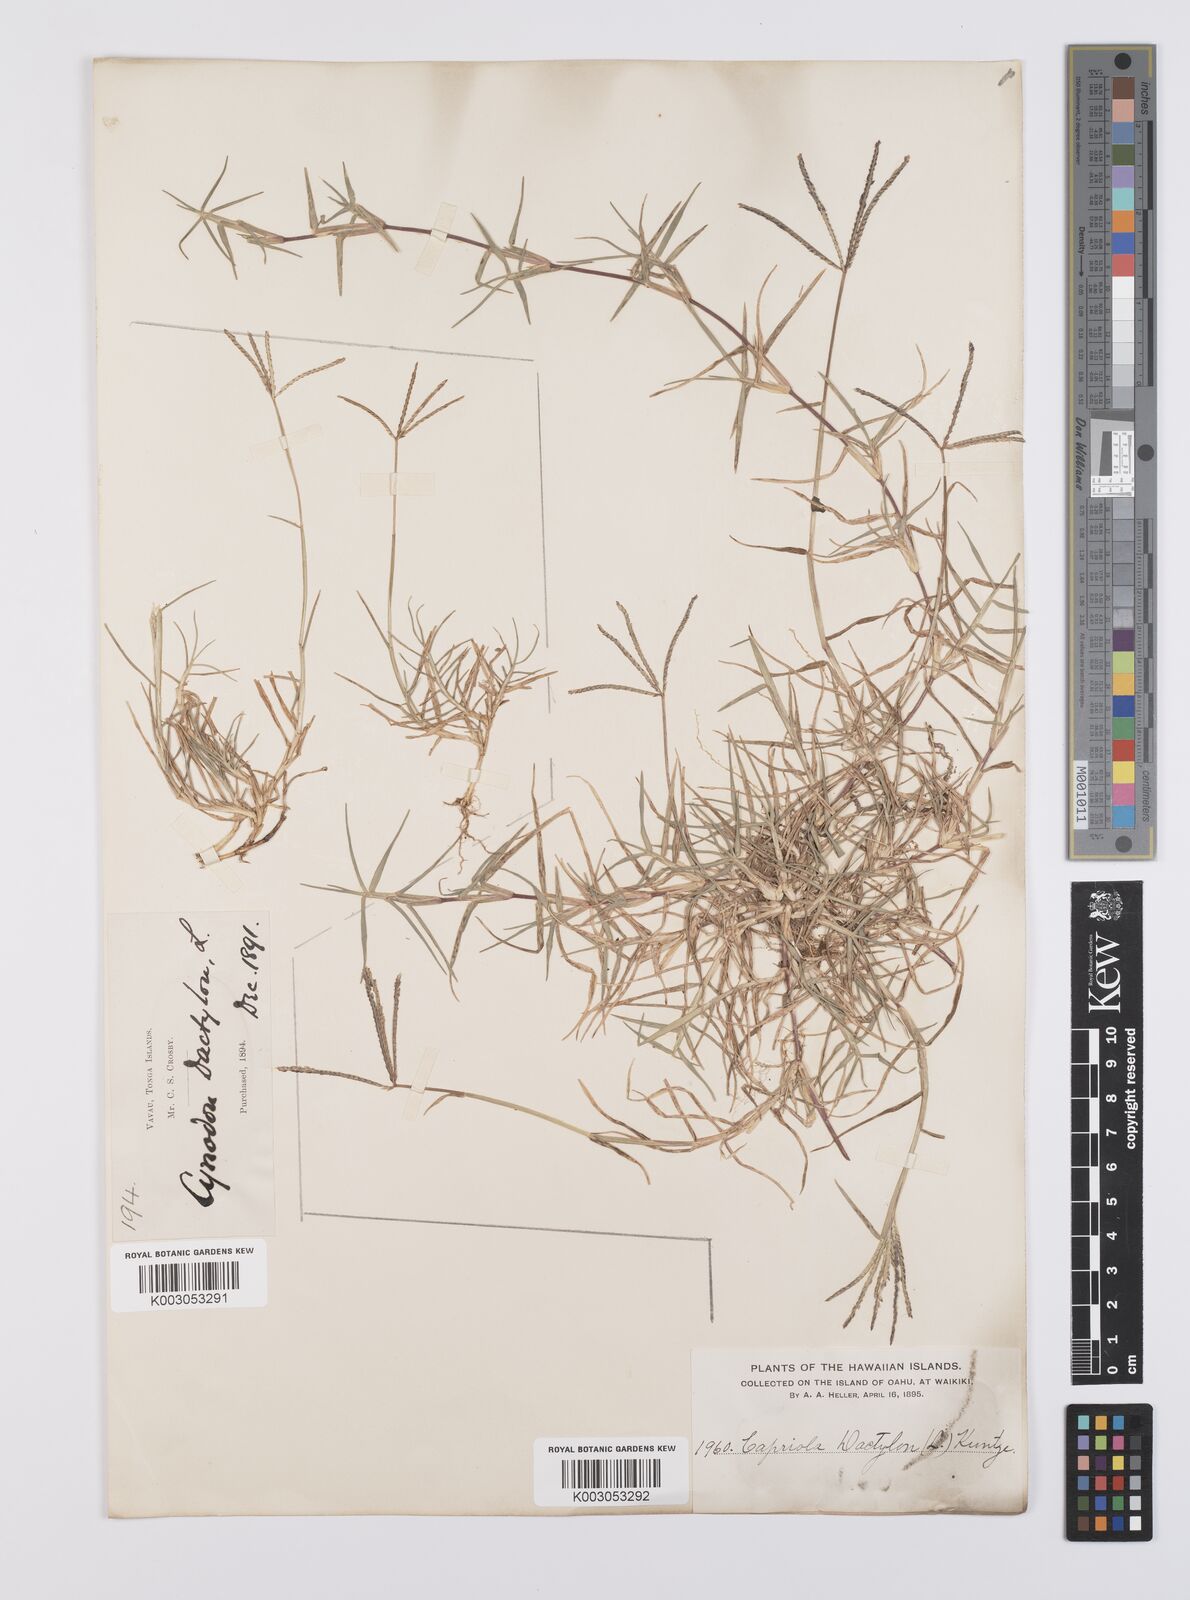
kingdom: Plantae
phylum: Tracheophyta
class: Liliopsida
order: Poales
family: Poaceae
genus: Cynodon
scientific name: Cynodon dactylon
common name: Bermuda grass
